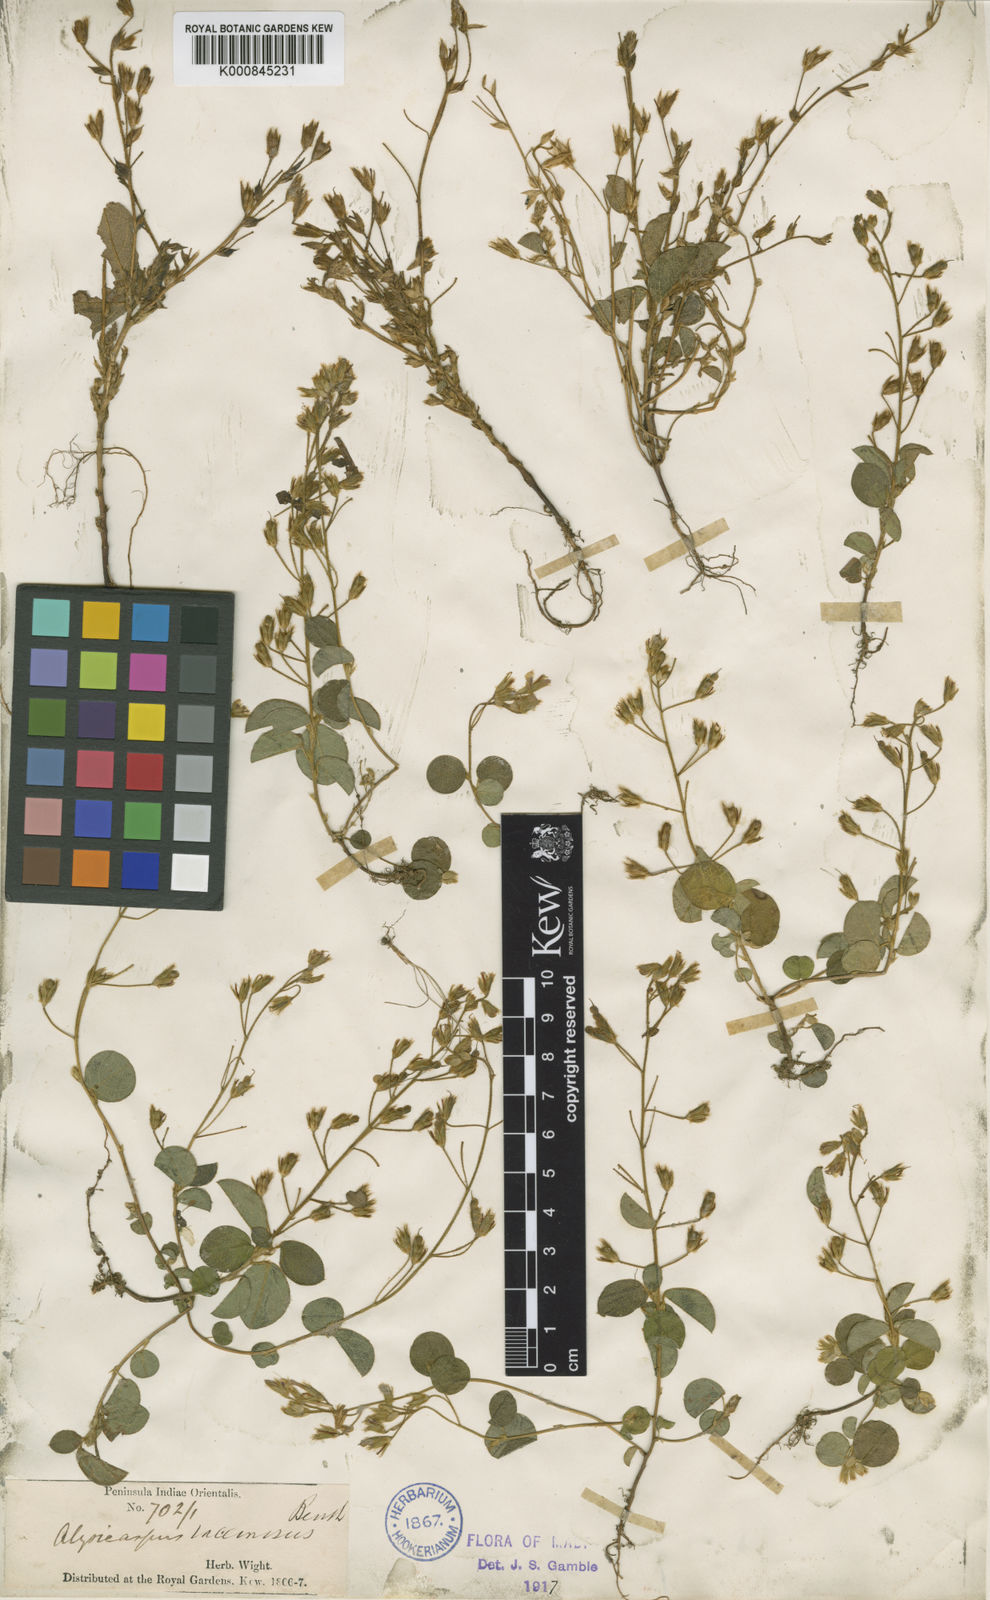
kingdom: Plantae
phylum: Tracheophyta
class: Magnoliopsida
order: Fabales
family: Fabaceae
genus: Alysicarpus
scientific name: Alysicarpus belgaumensis
